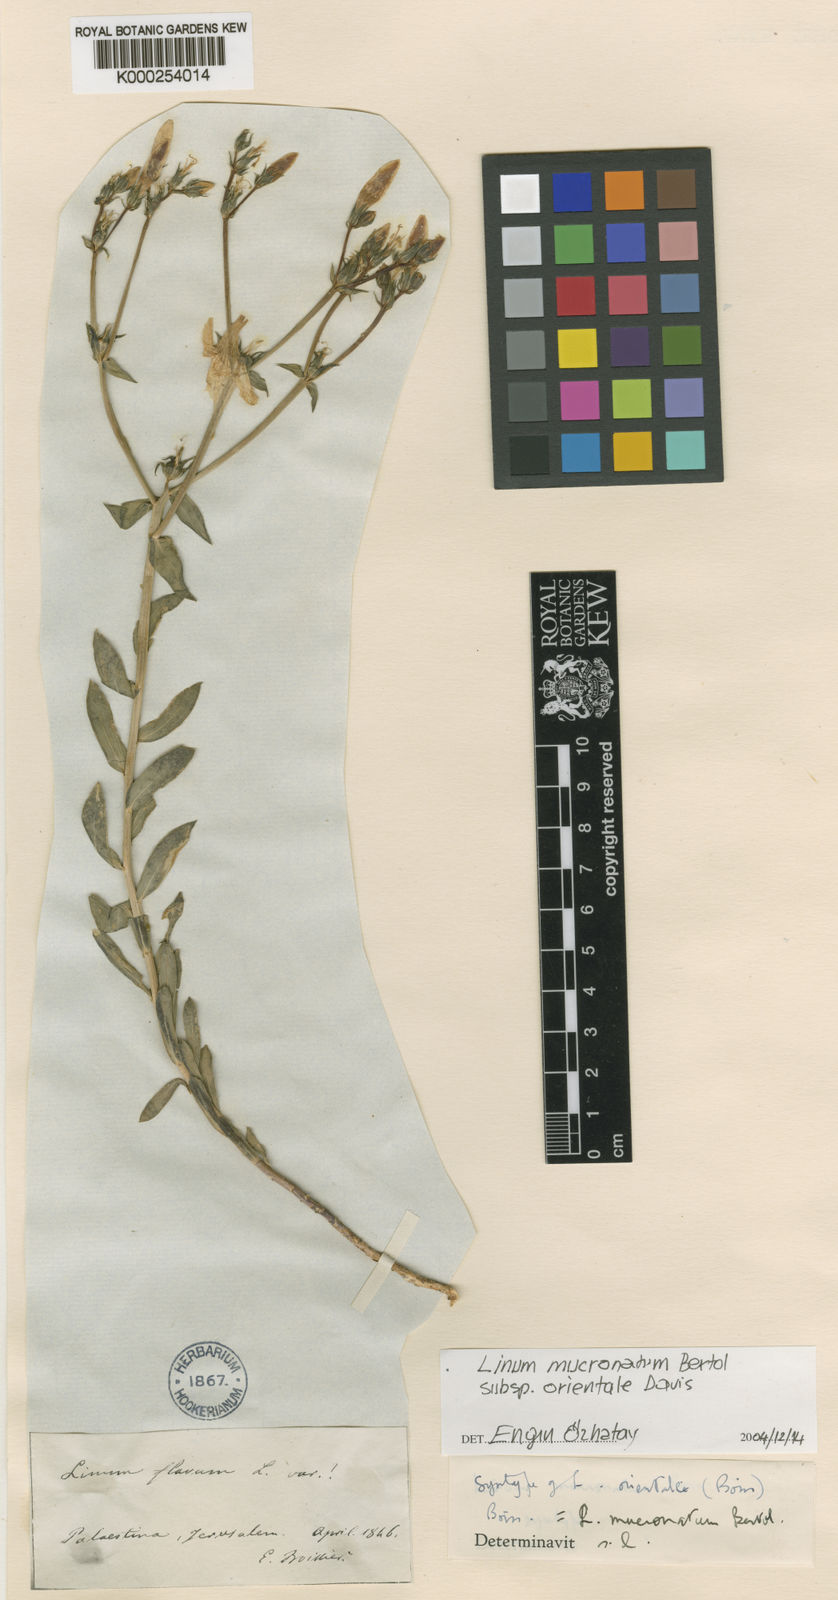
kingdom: Plantae
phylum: Tracheophyta
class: Magnoliopsida
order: Malpighiales
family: Linaceae
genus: Linum
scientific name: Linum mucronatum
